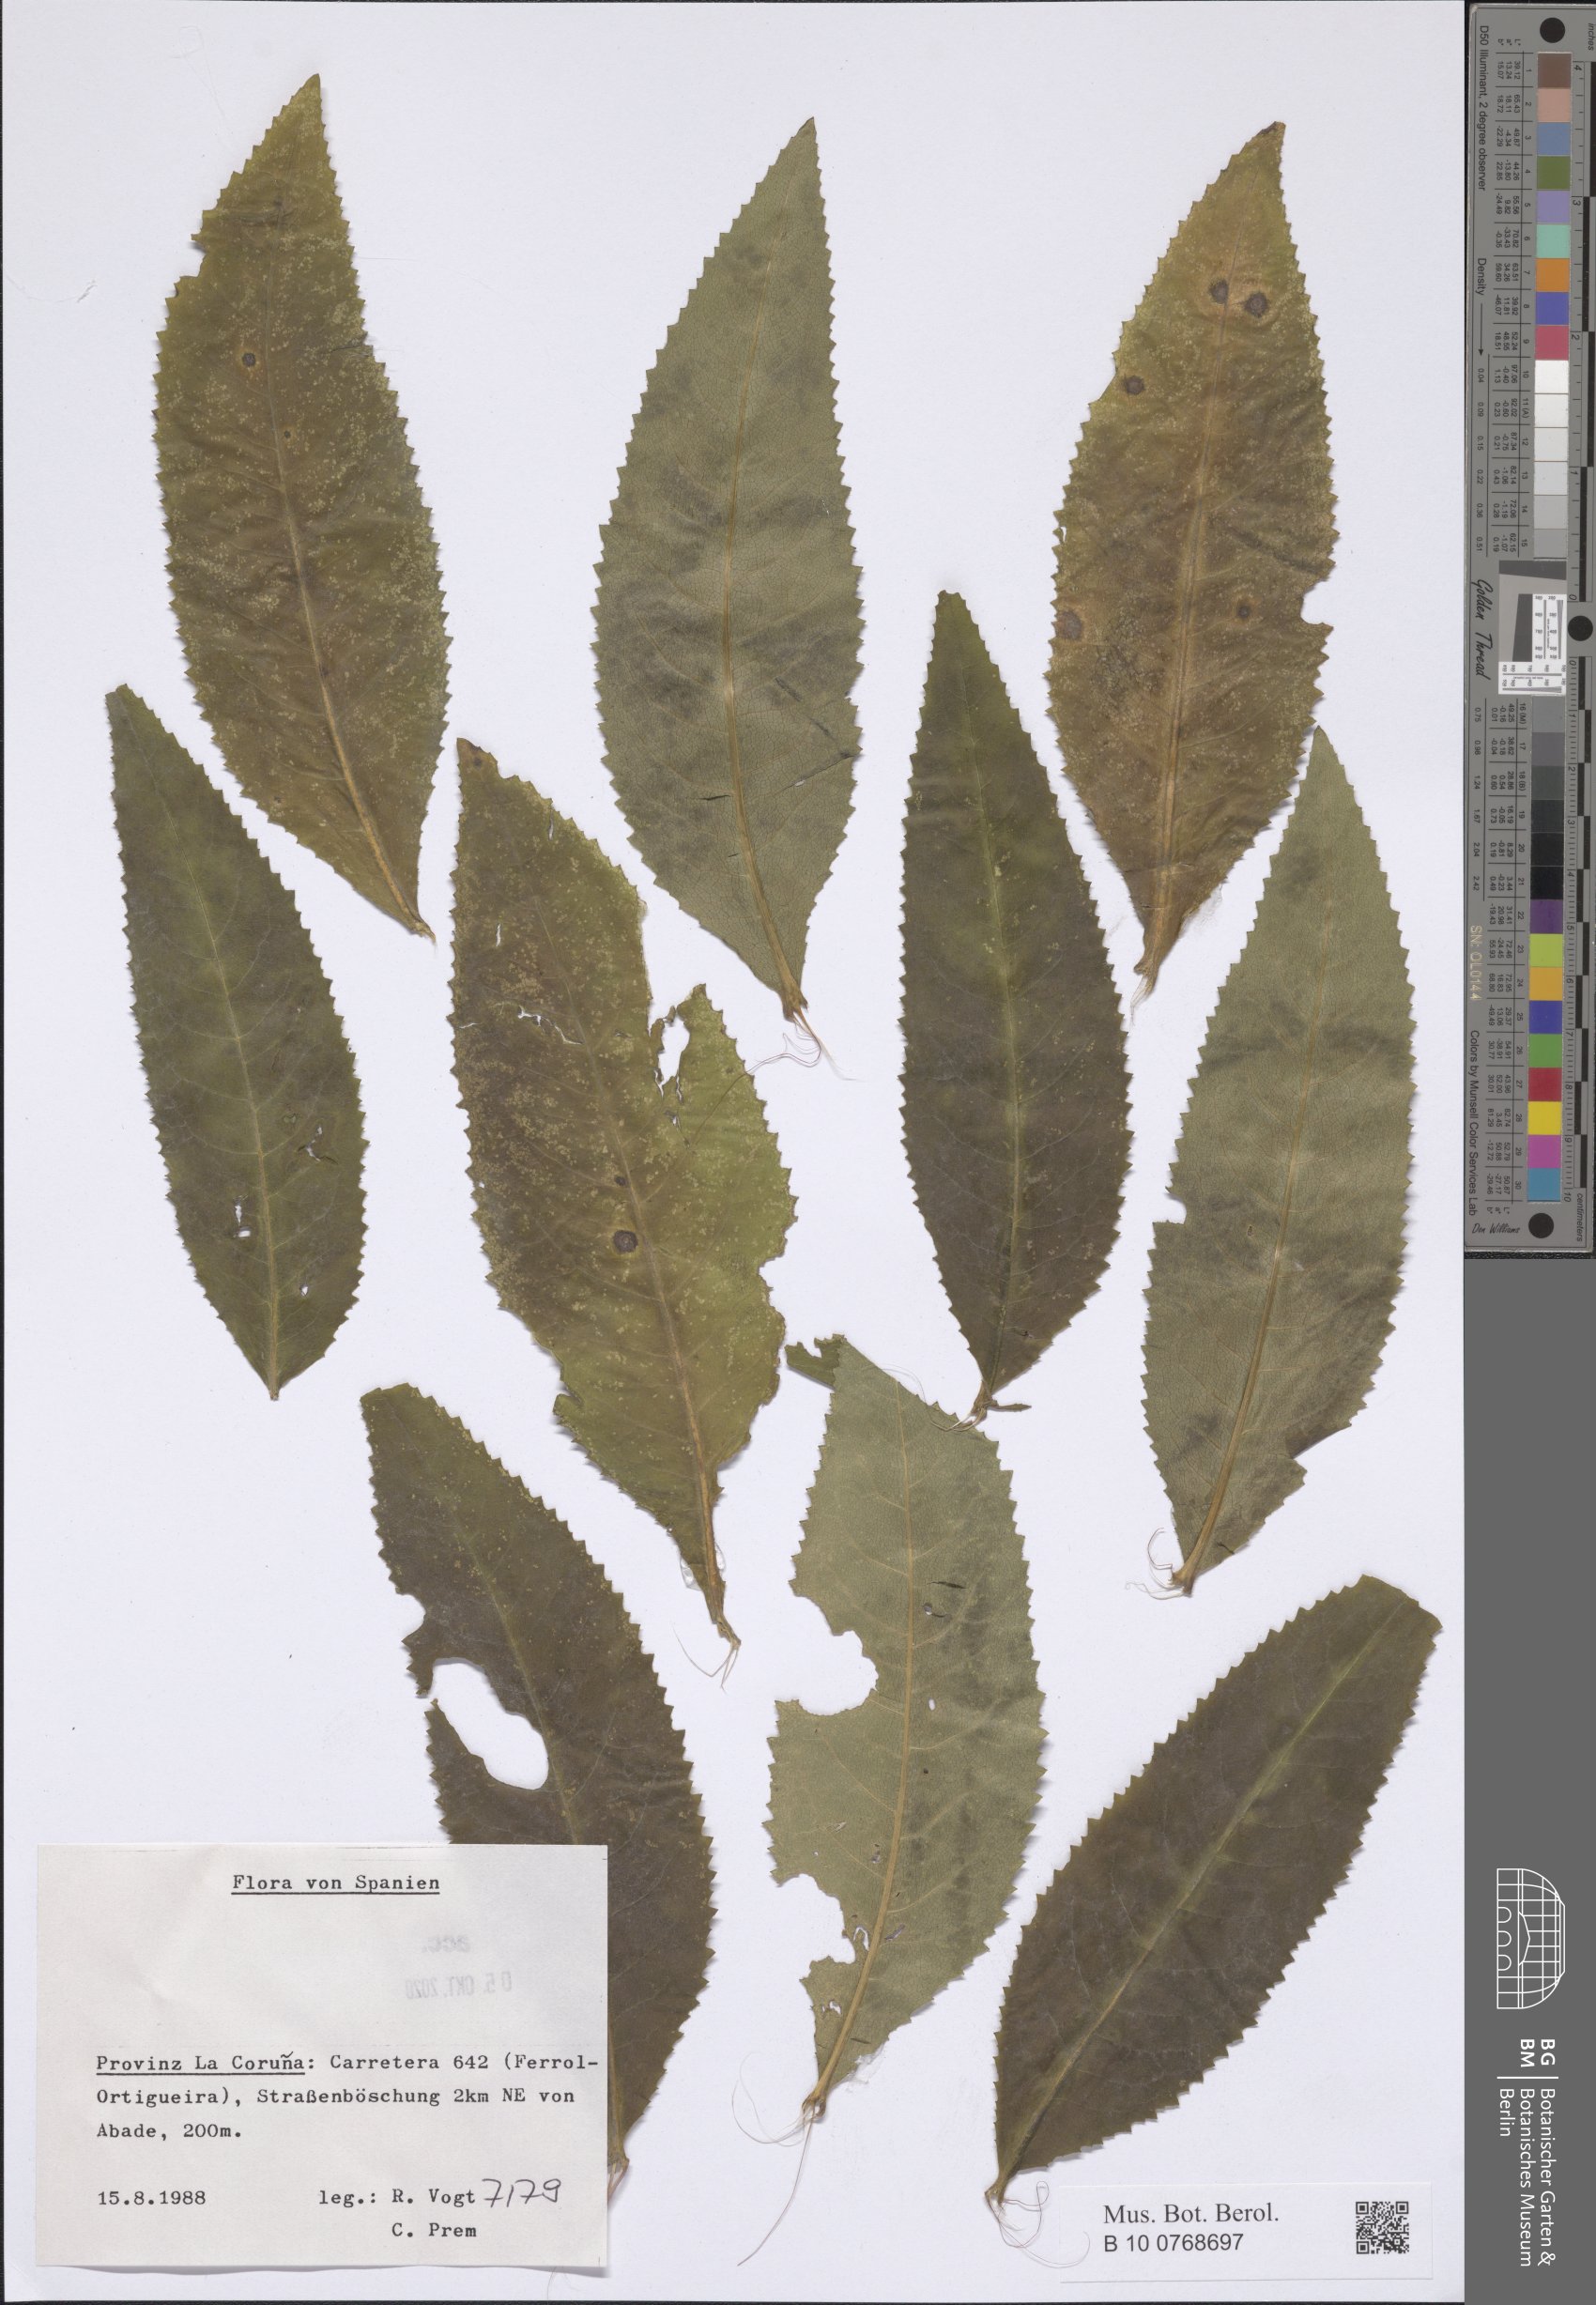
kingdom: Plantae
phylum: Tracheophyta
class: Magnoliopsida
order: Asterales
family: Asteraceae
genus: Senecio
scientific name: Senecio
